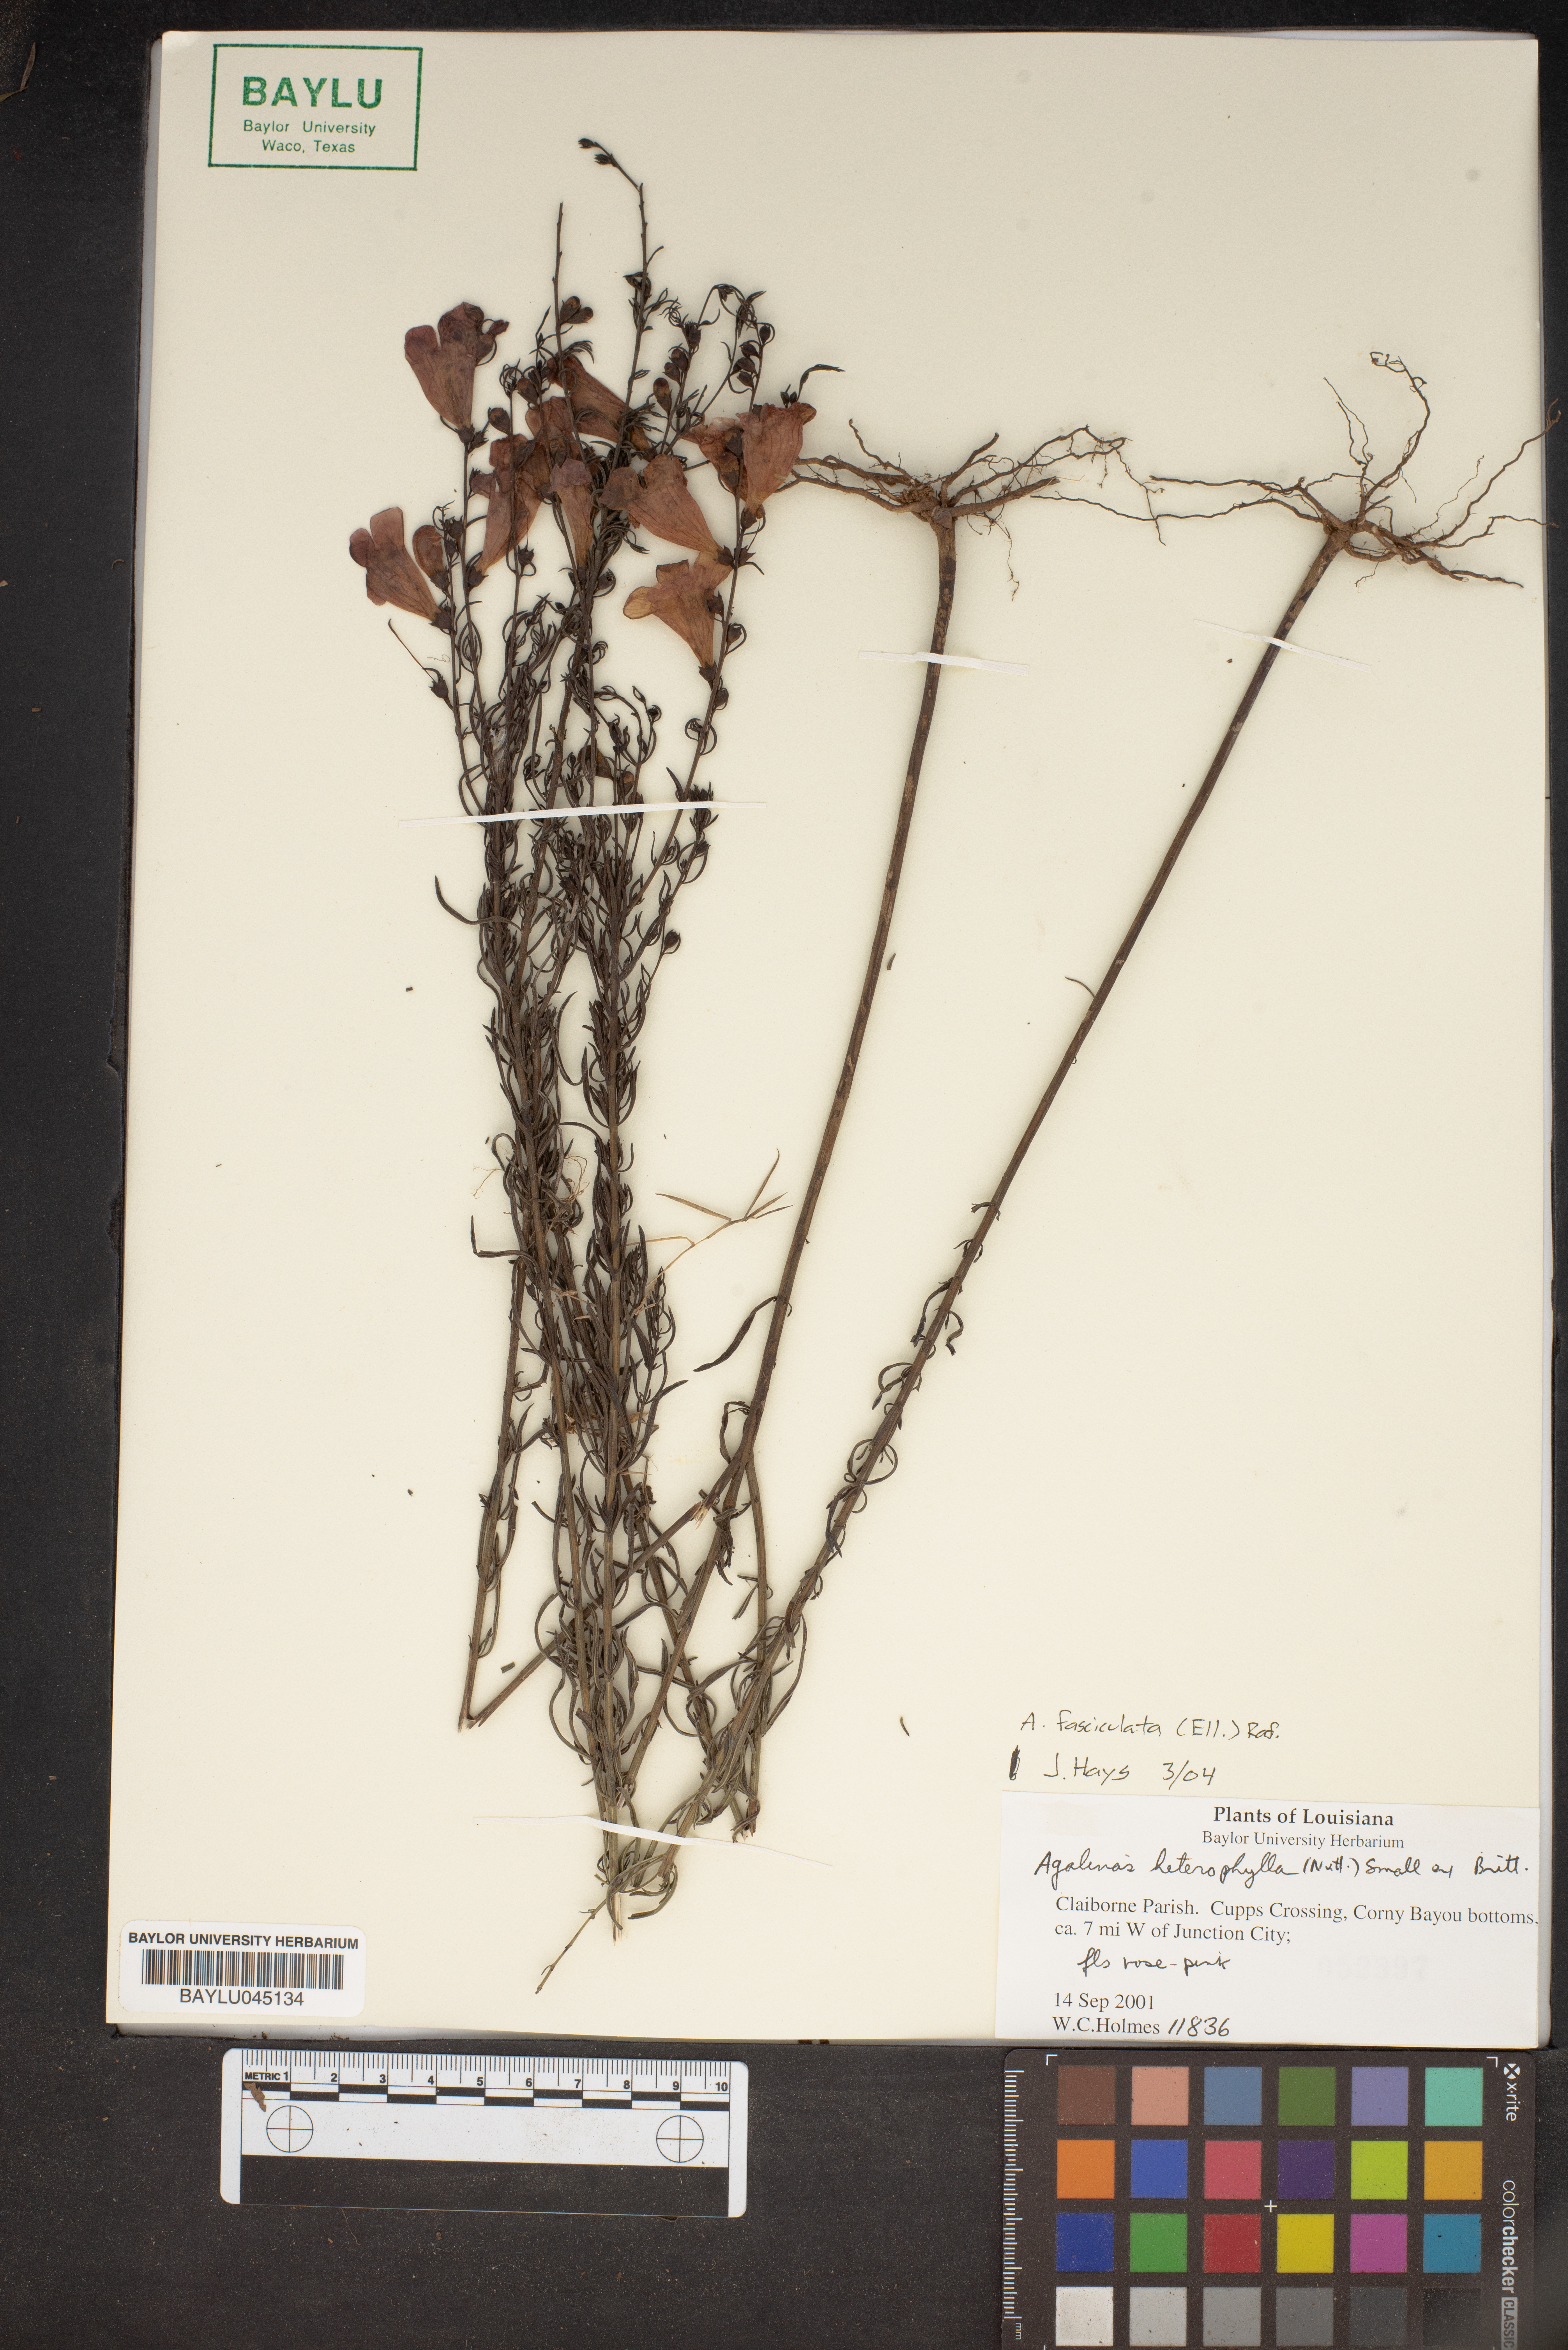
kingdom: Plantae
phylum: Tracheophyta
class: Magnoliopsida
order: Lamiales
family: Orobanchaceae
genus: Agalinis
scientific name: Agalinis fasciculata
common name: Beach false foxglove
